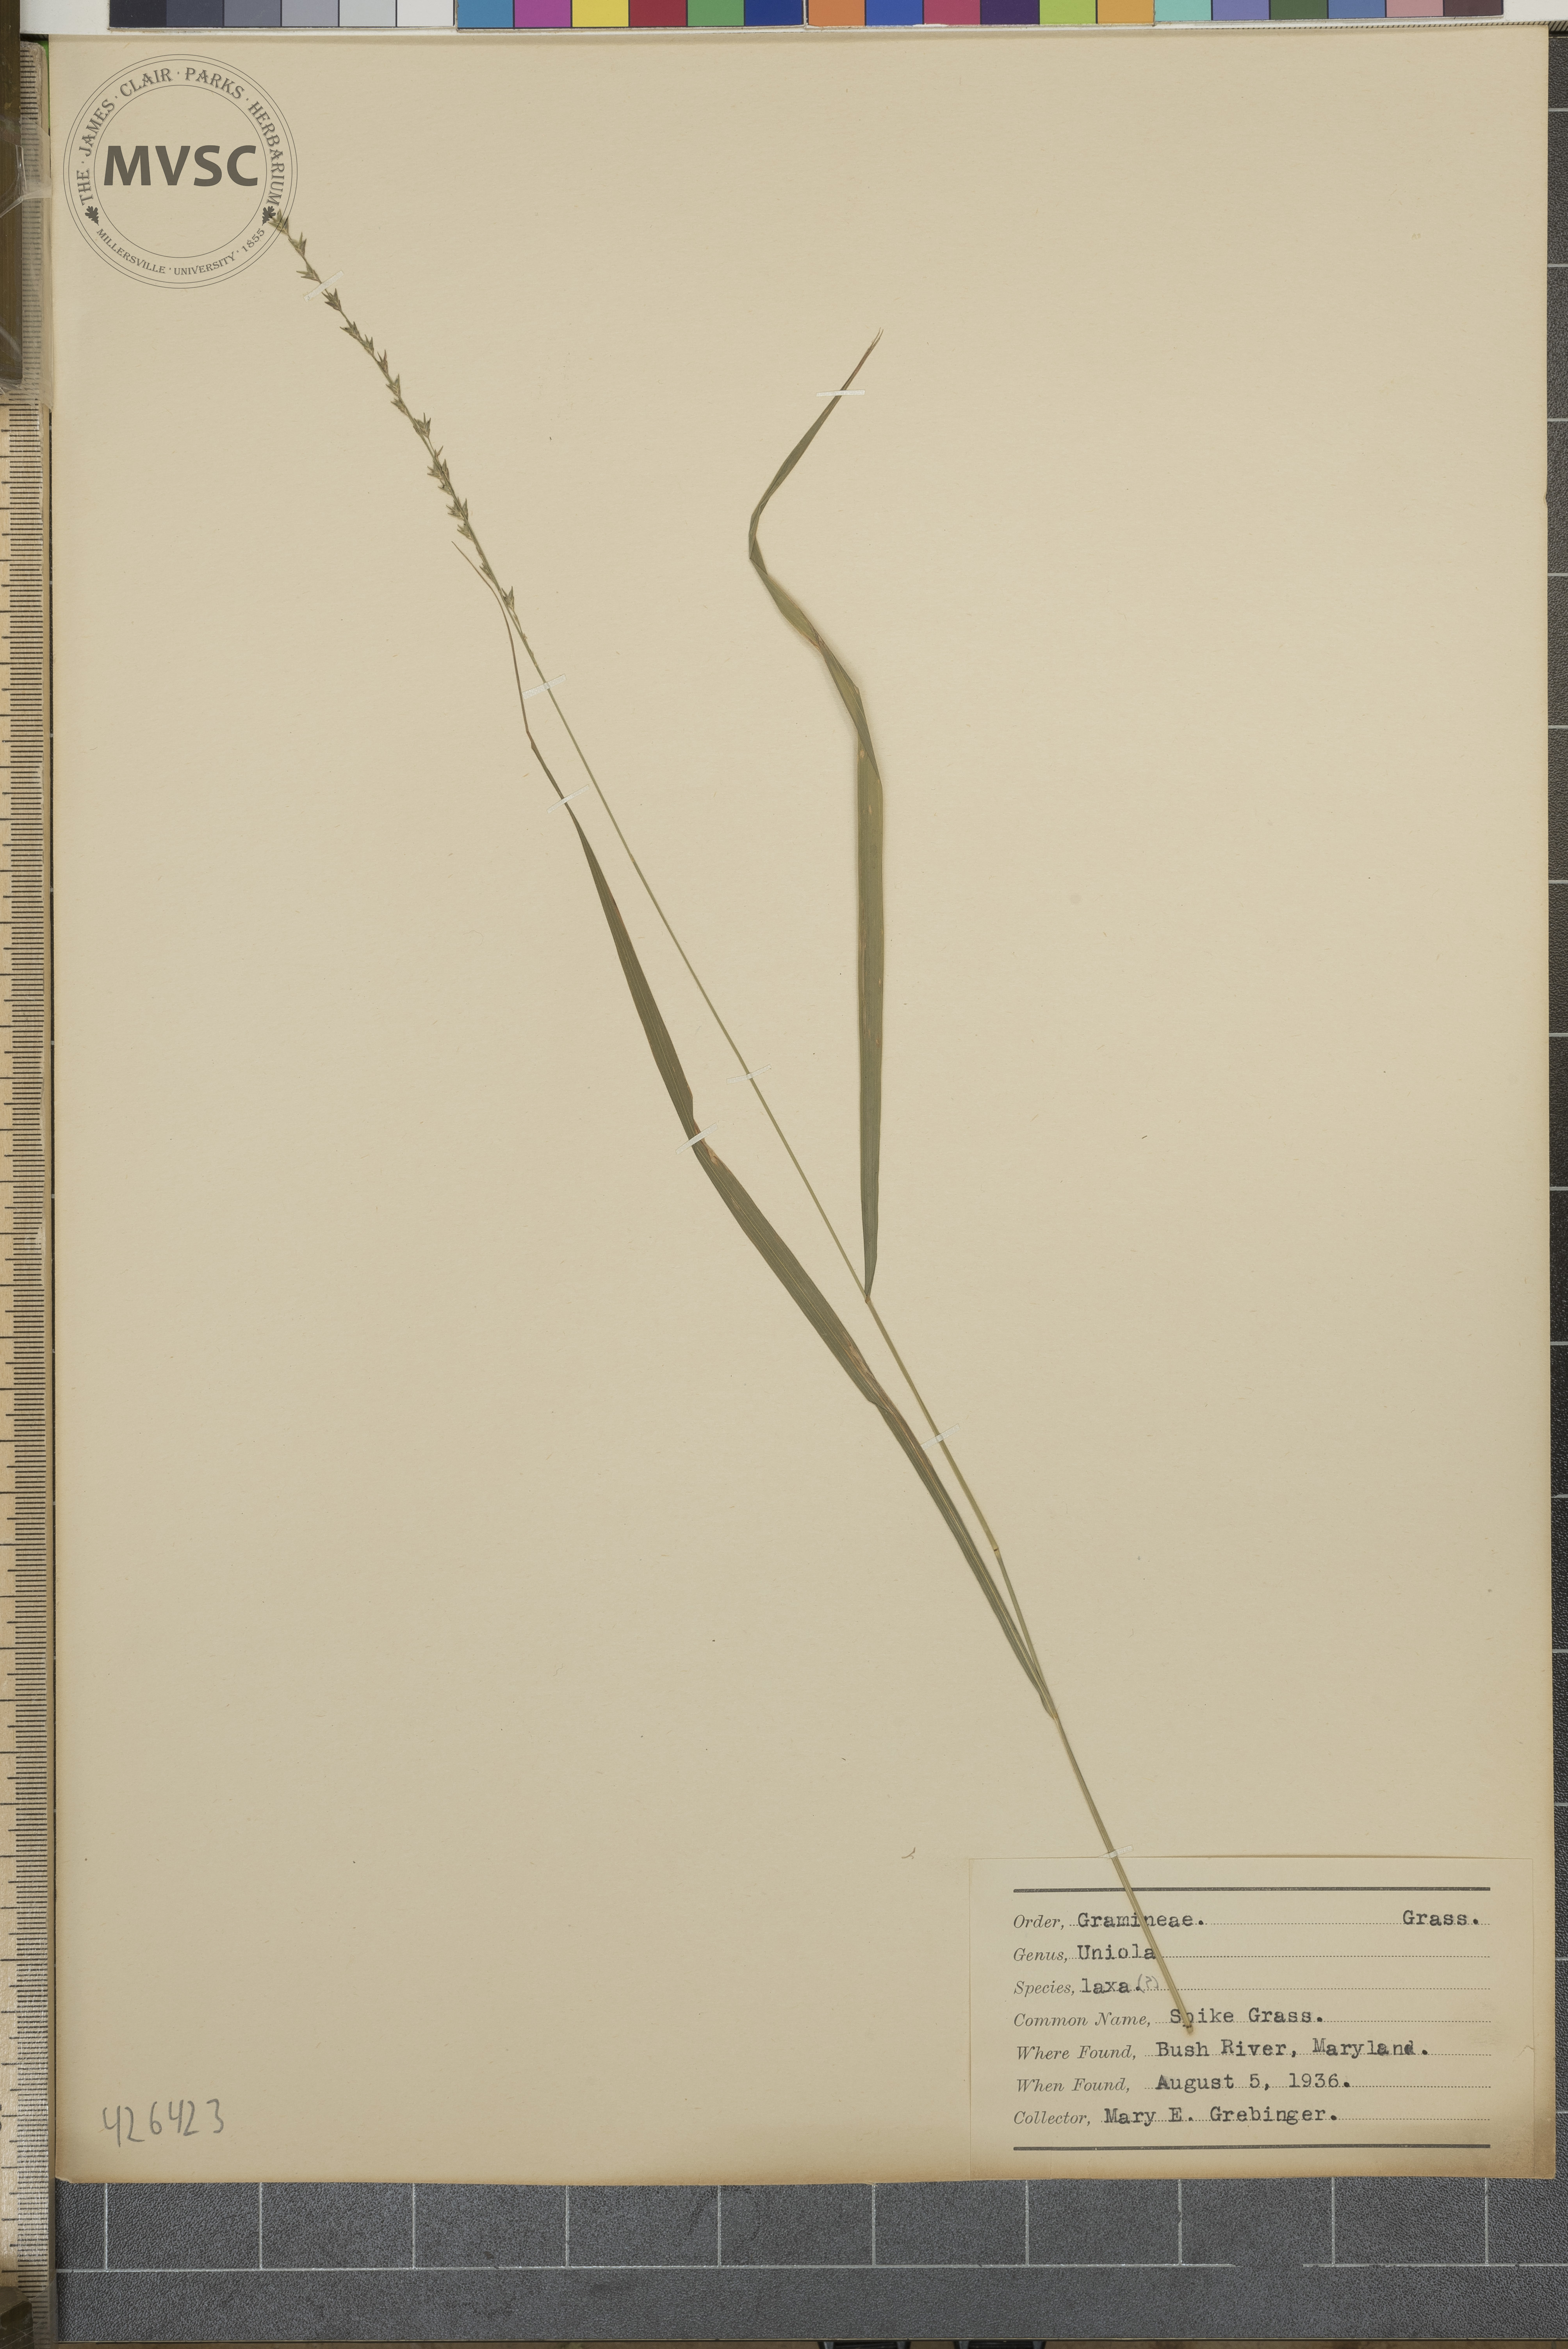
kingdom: Plantae
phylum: Tracheophyta
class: Liliopsida
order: Poales
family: Poaceae
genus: Chasmanthium
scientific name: Chasmanthium laxum
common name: Spike Grass
